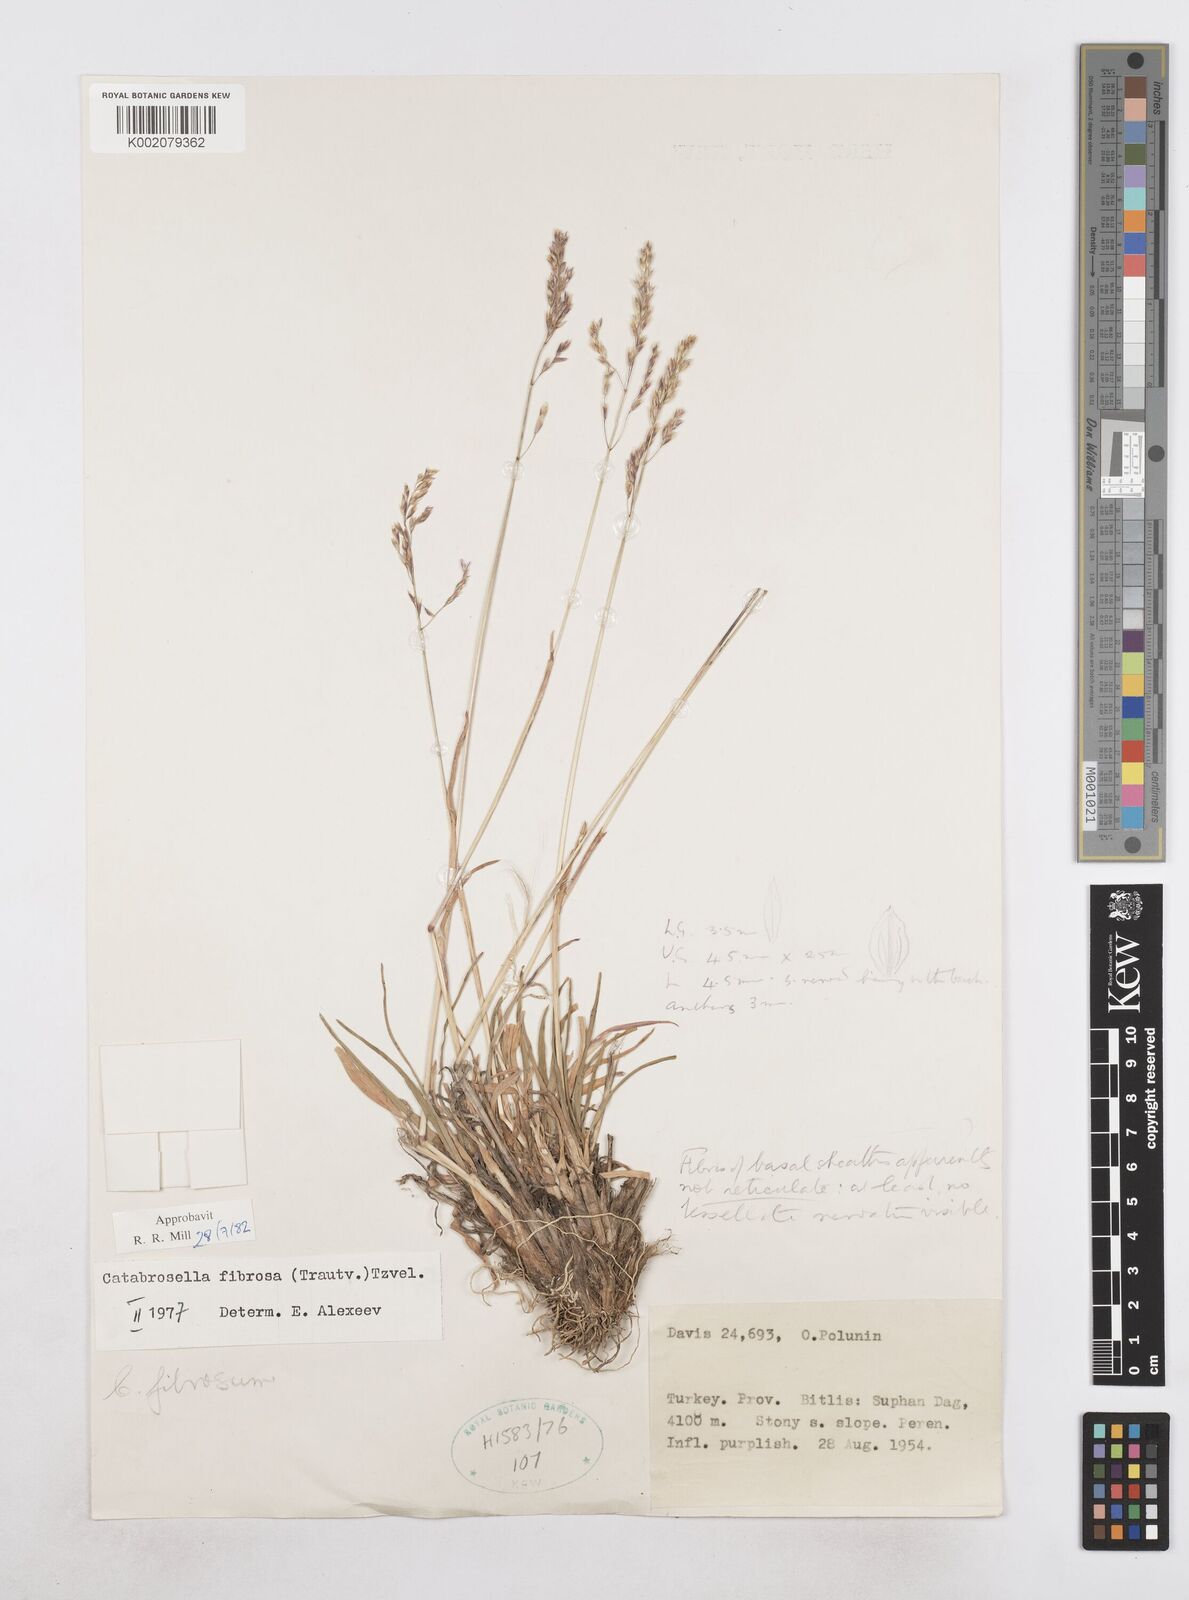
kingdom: Plantae
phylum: Tracheophyta
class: Liliopsida
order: Poales
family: Poaceae
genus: Catabrosella
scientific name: Catabrosella fibrosa
